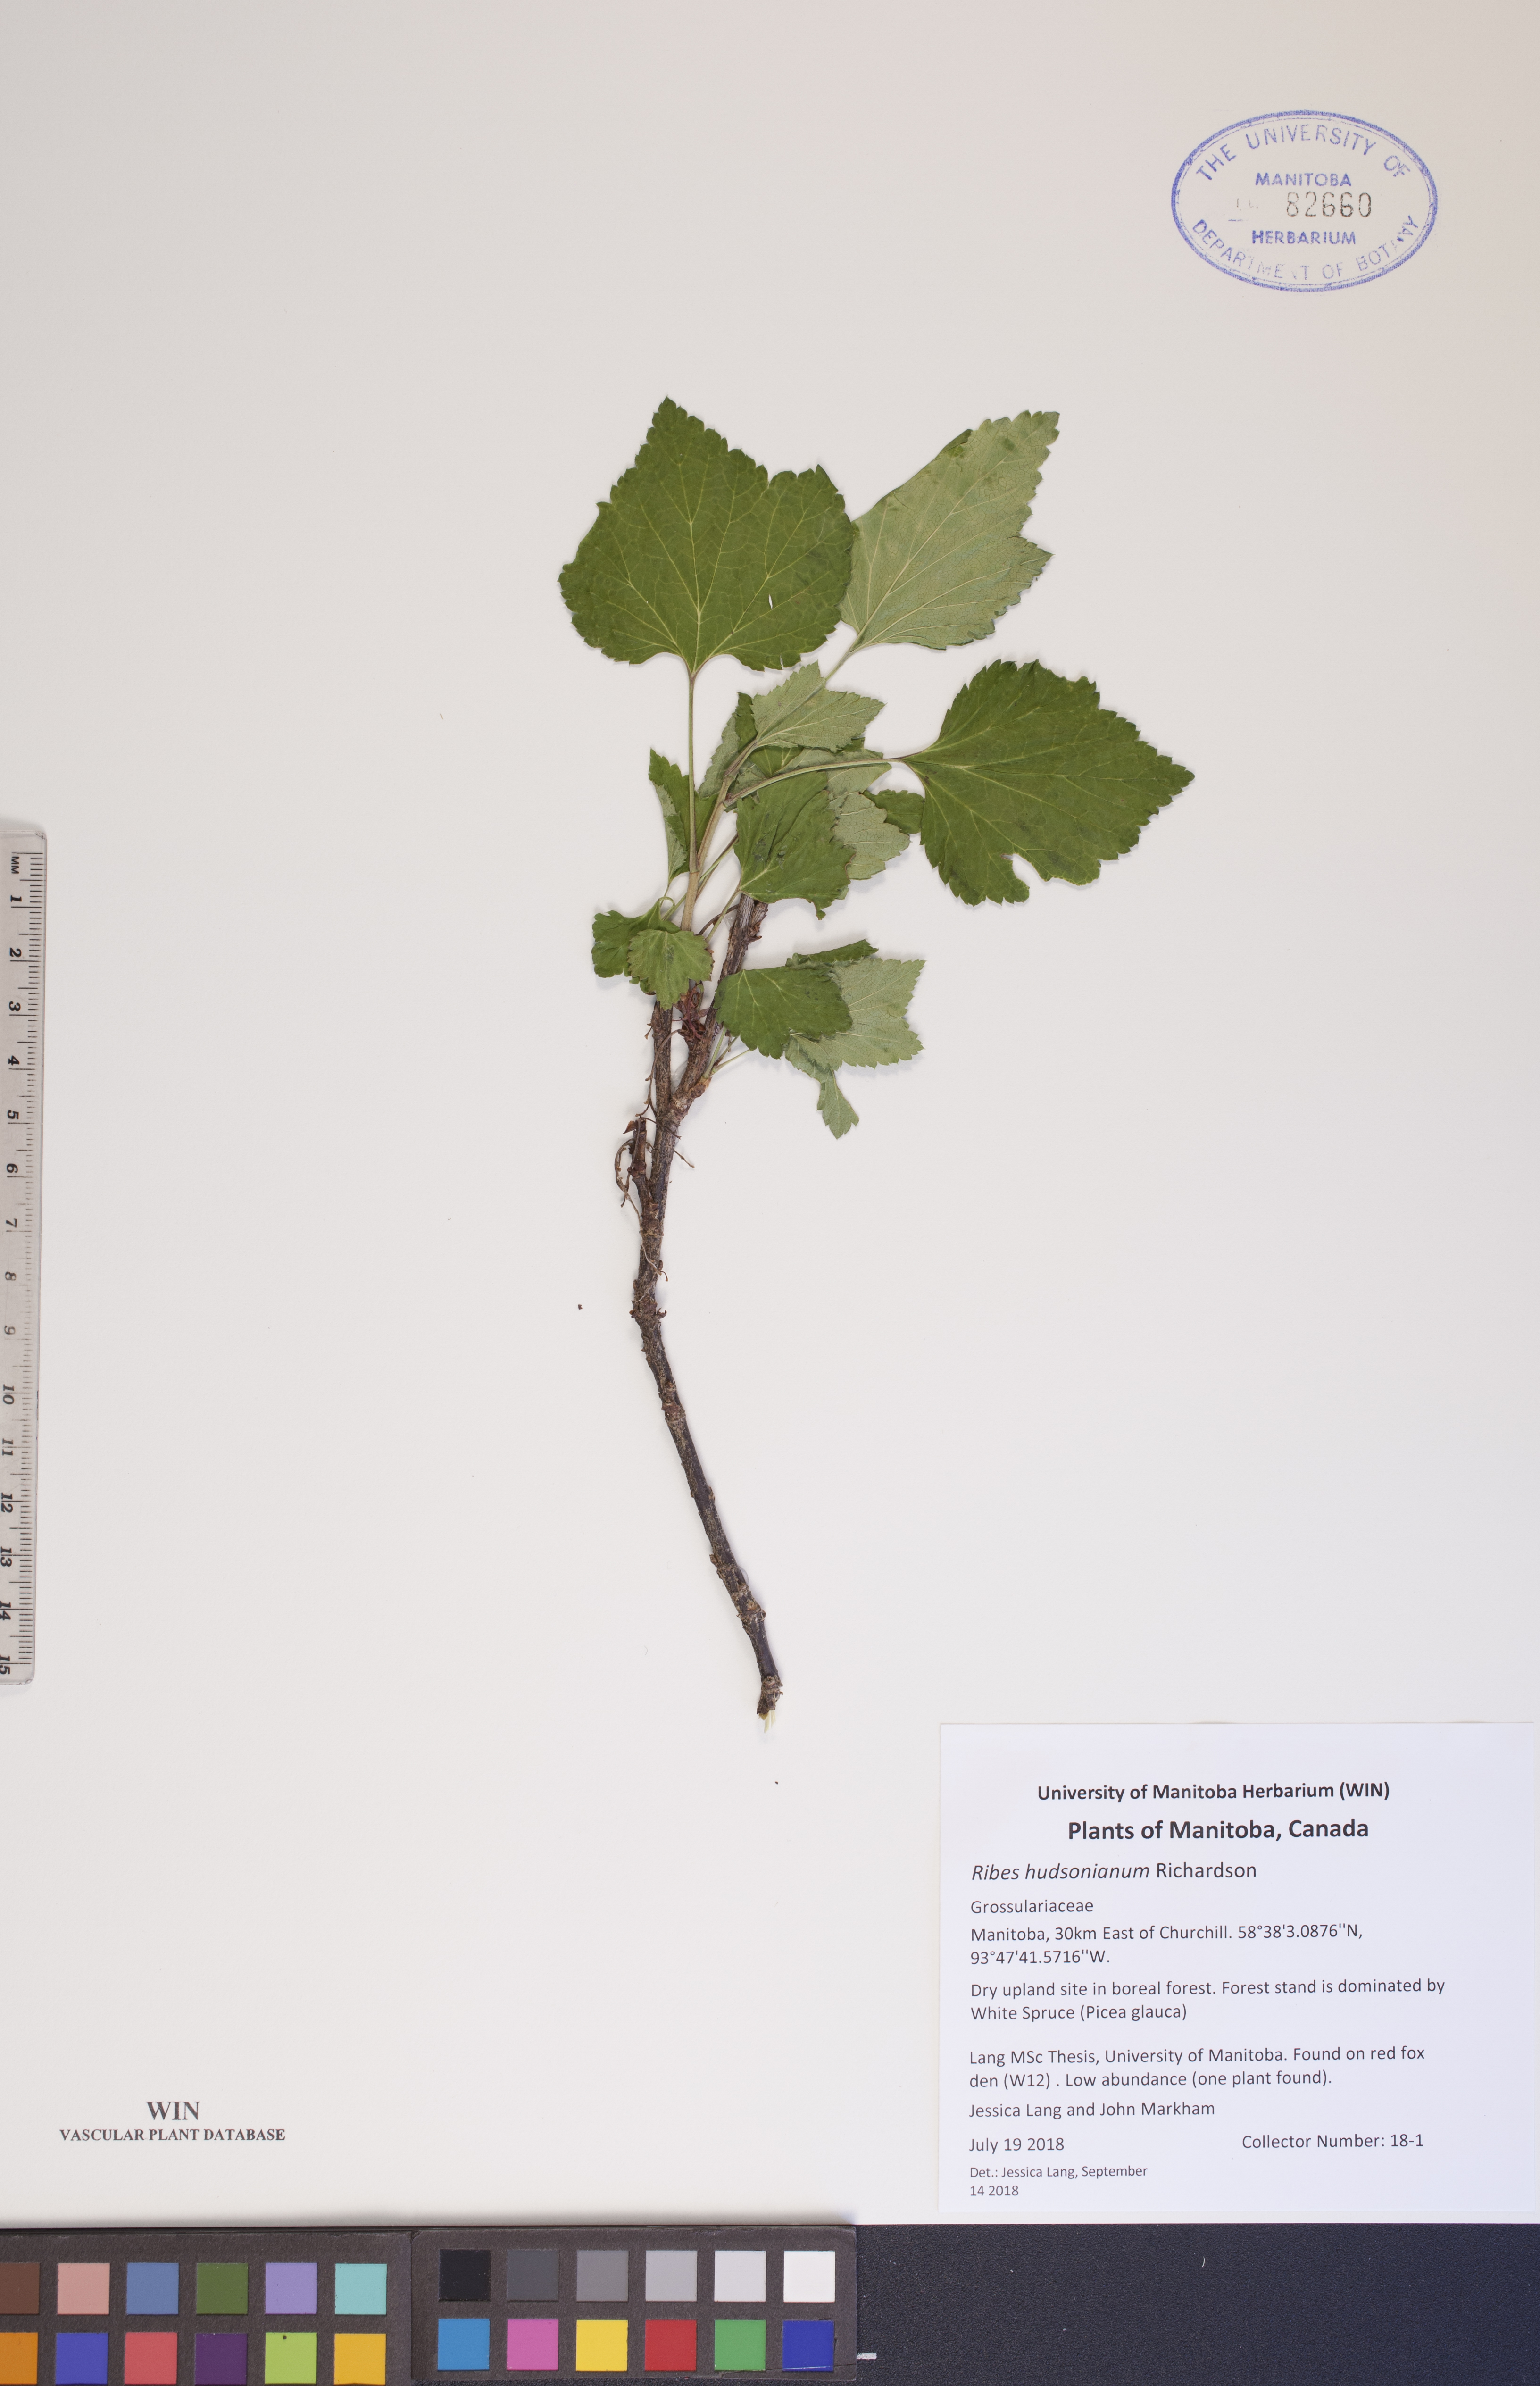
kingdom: Plantae
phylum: Tracheophyta
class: Magnoliopsida
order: Saxifragales
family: Grossulariaceae
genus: Ribes
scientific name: Ribes hudsonianum
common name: Northern black currant
